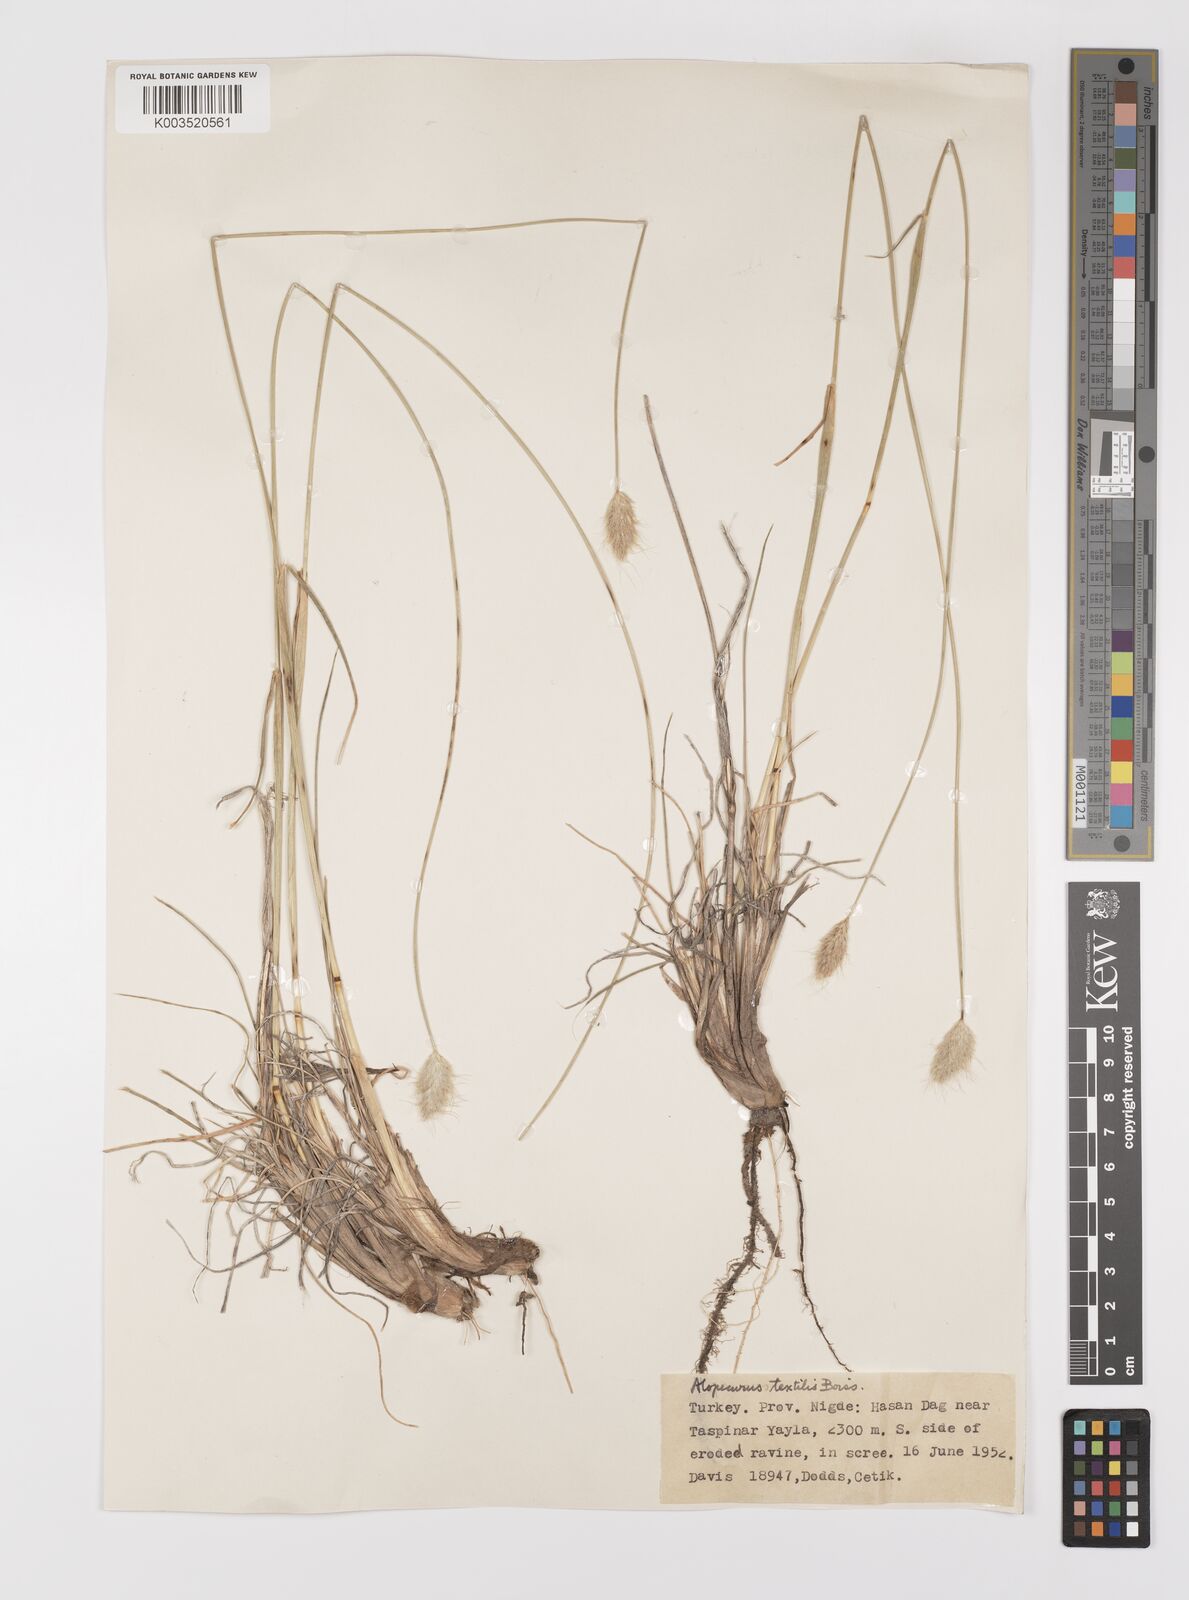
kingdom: Plantae
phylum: Tracheophyta
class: Liliopsida
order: Poales
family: Poaceae
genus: Alopecurus
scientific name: Alopecurus textilis
